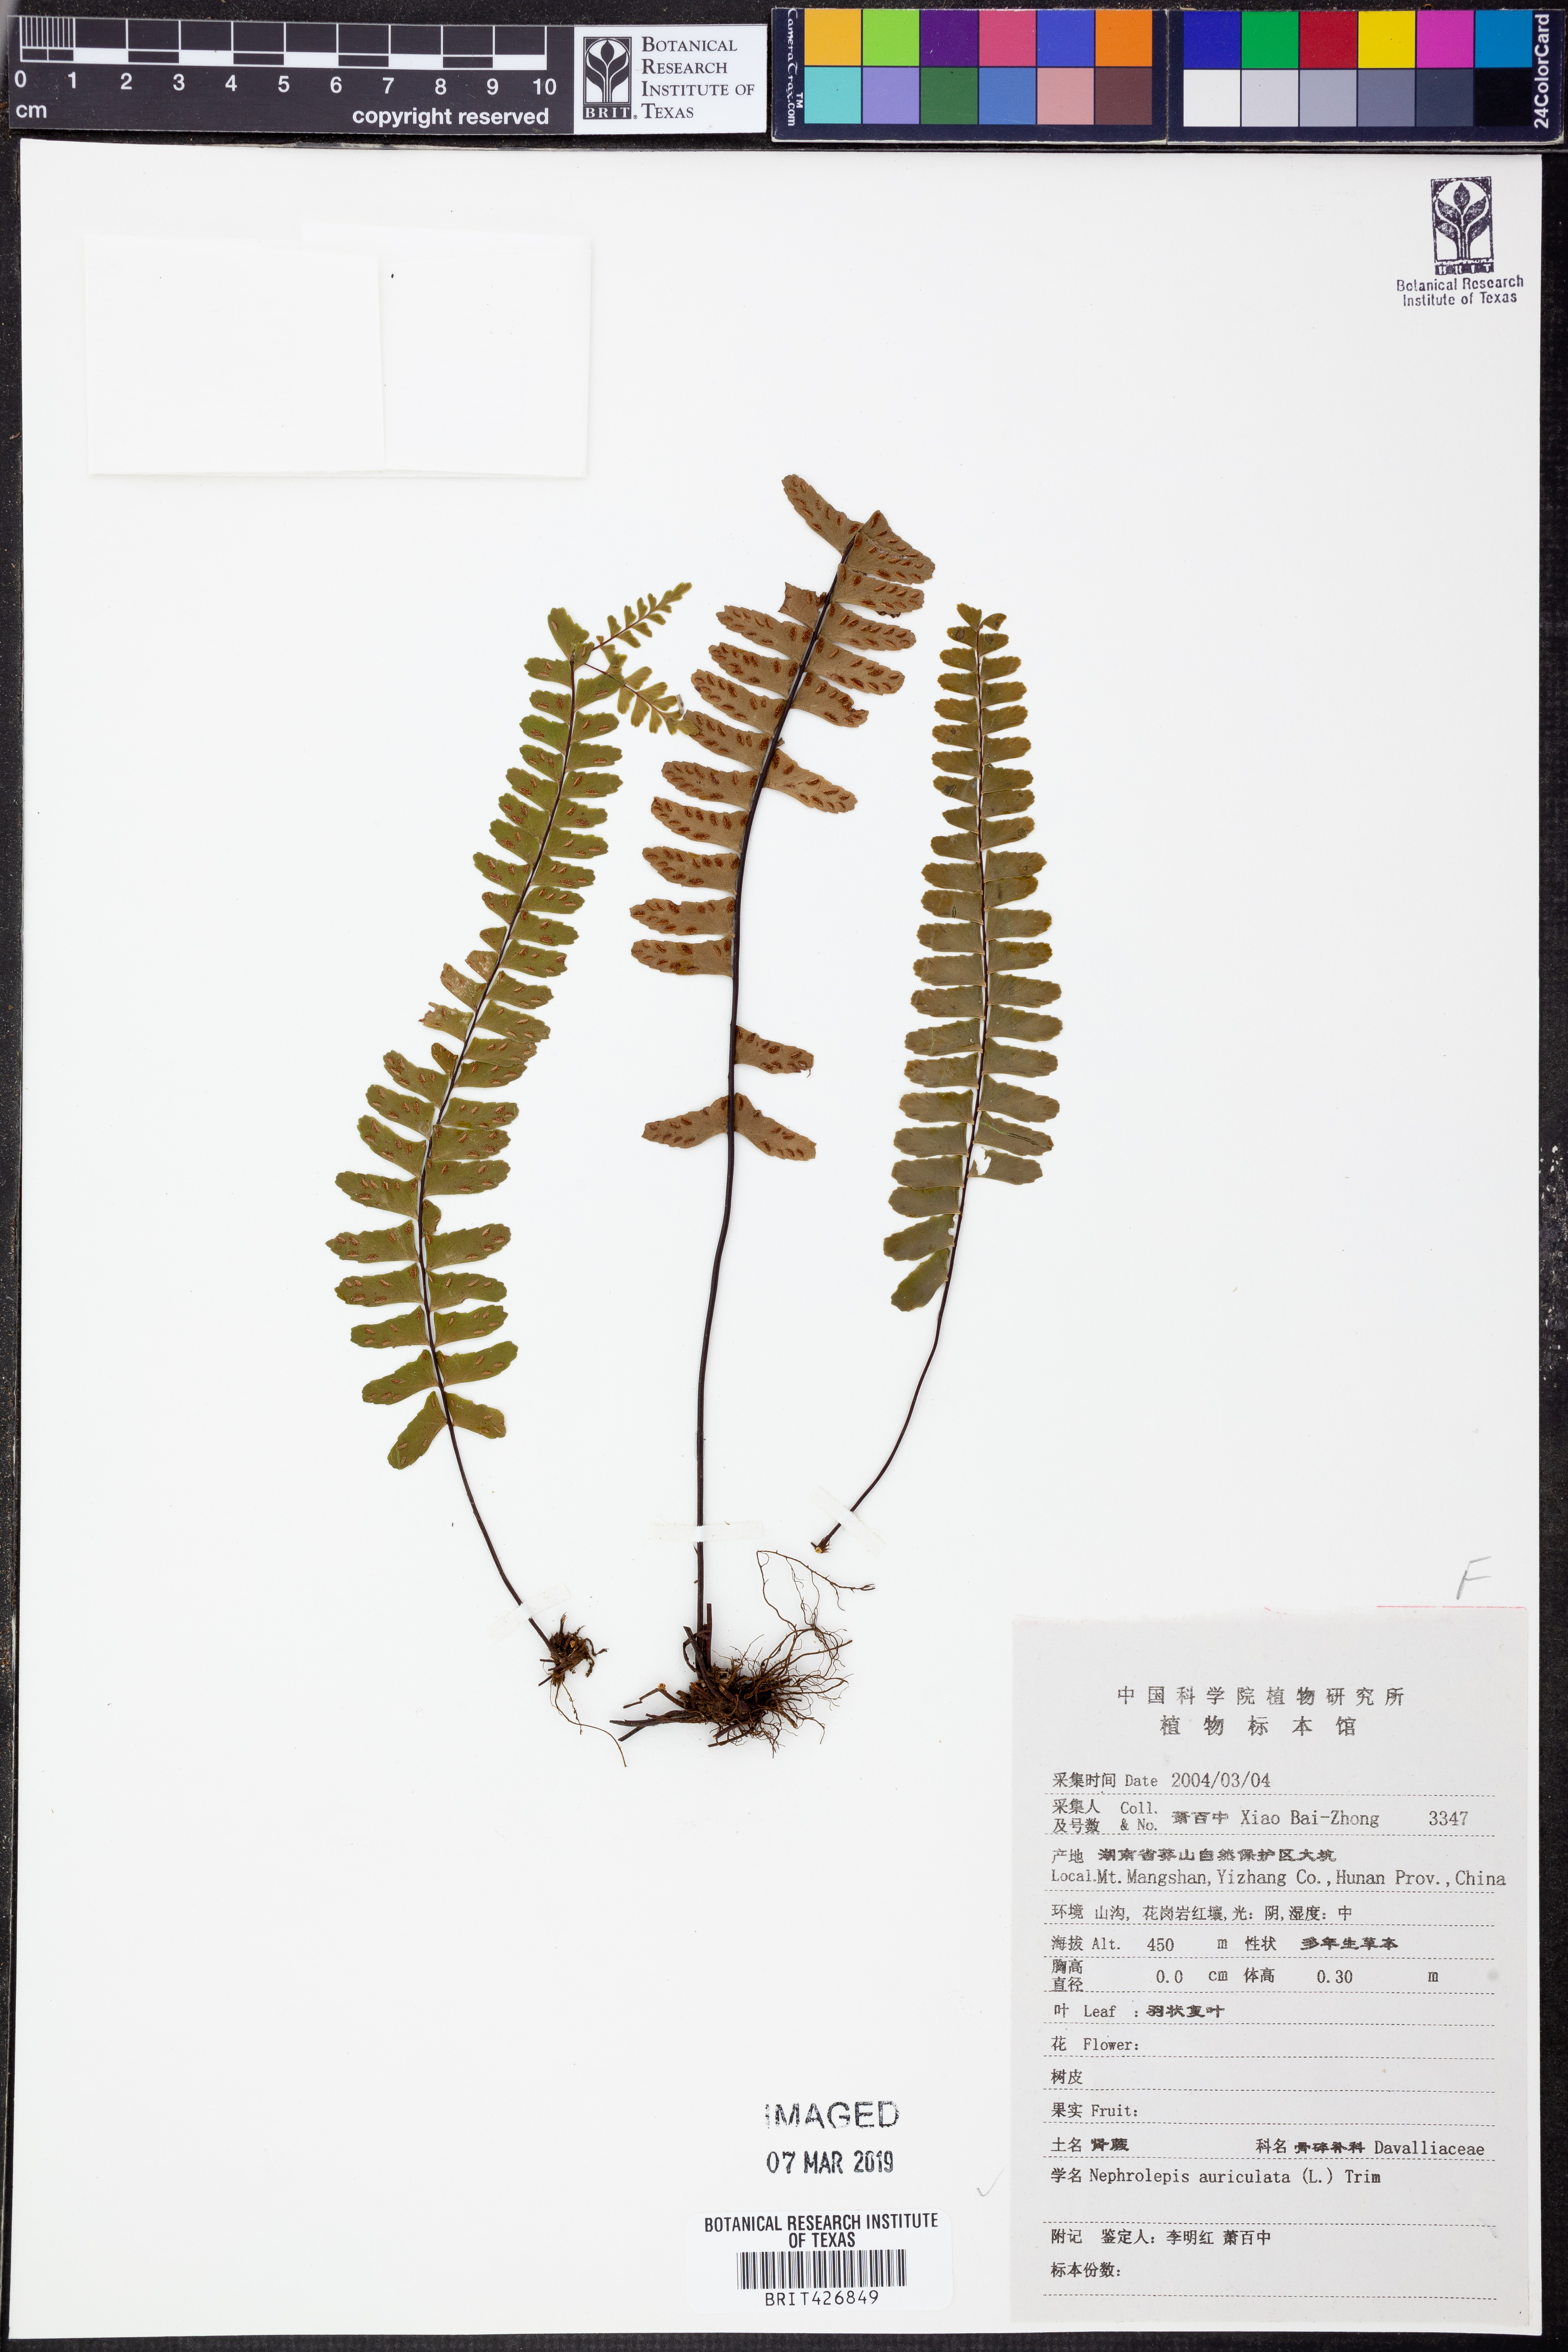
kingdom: Plantae
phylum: Tracheophyta
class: Polypodiopsida
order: Polypodiales
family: Nephrolepidaceae
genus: Nephrolepis
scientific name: Nephrolepis cordifolia
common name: Narrow swordfern
